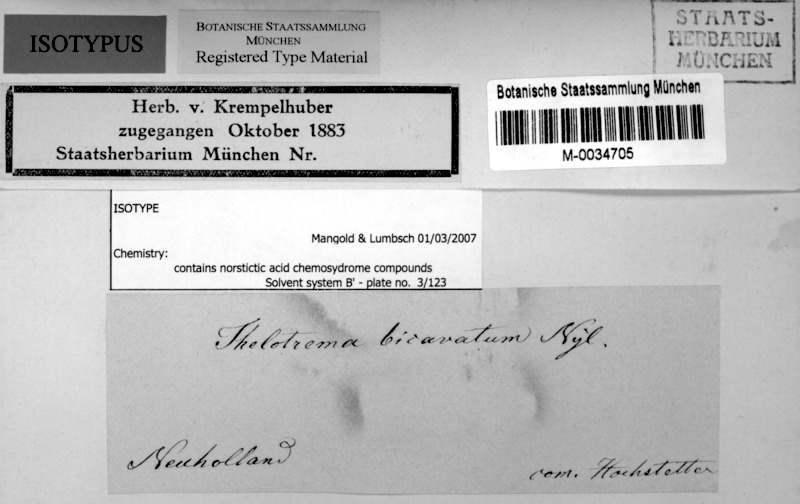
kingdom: Fungi
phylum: Ascomycota
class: Lecanoromycetes
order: Ostropales
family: Graphidaceae
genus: Thelotrema
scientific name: Thelotrema
